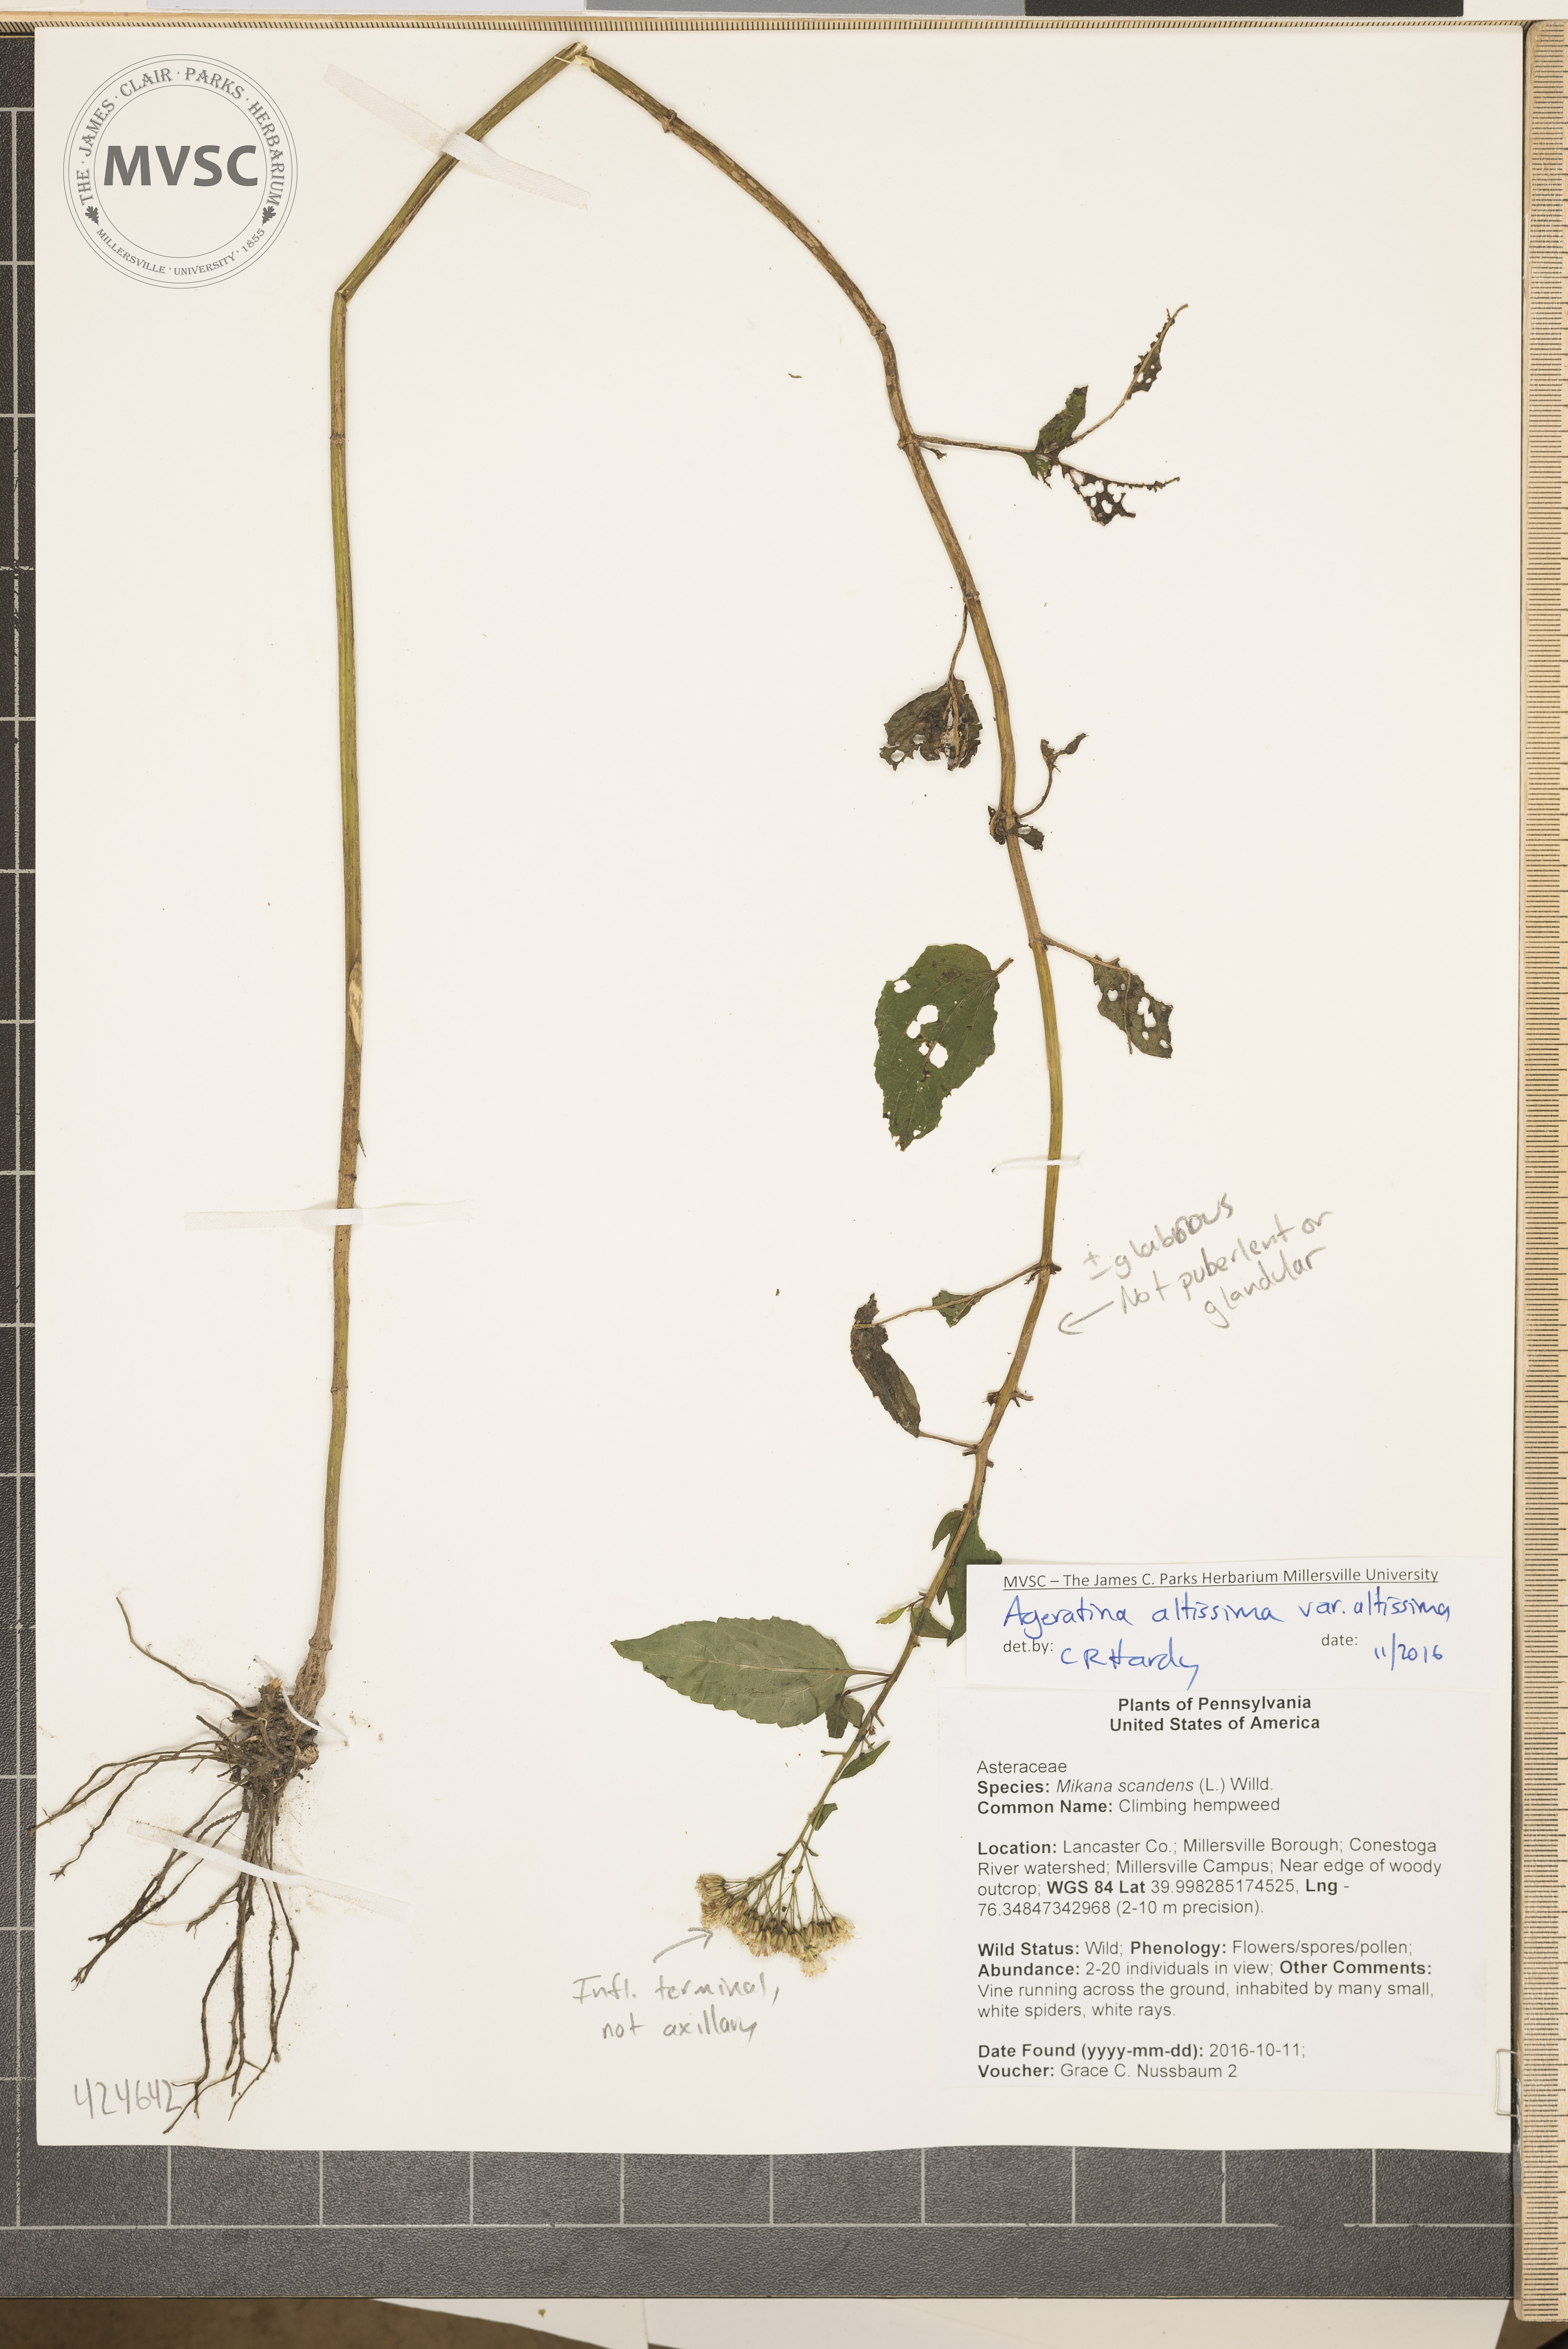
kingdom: Plantae
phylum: Tracheophyta
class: Magnoliopsida
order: Asterales
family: Asteraceae
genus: Ageratina
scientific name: Ageratina altissima
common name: White snakeroot
